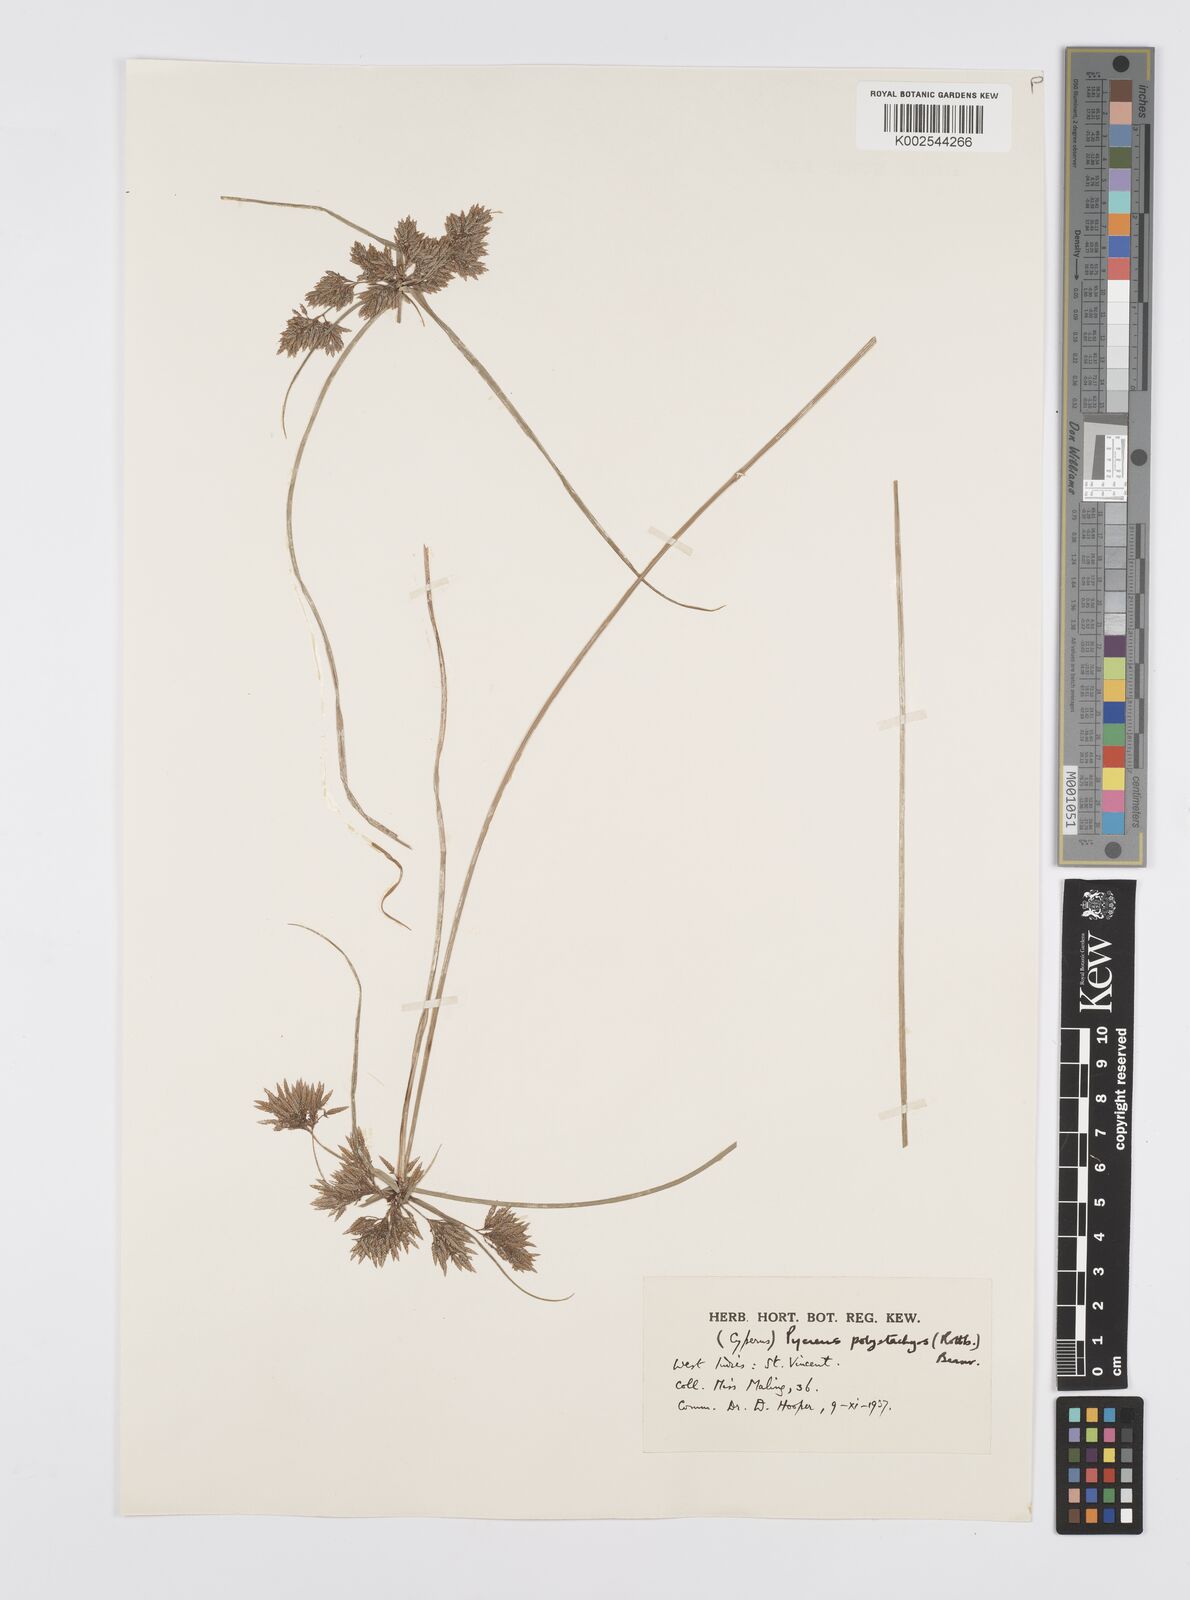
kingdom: Plantae
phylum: Tracheophyta
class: Liliopsida
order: Poales
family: Cyperaceae
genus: Cyperus
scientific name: Cyperus polystachyos
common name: Bunchy flat sedge
